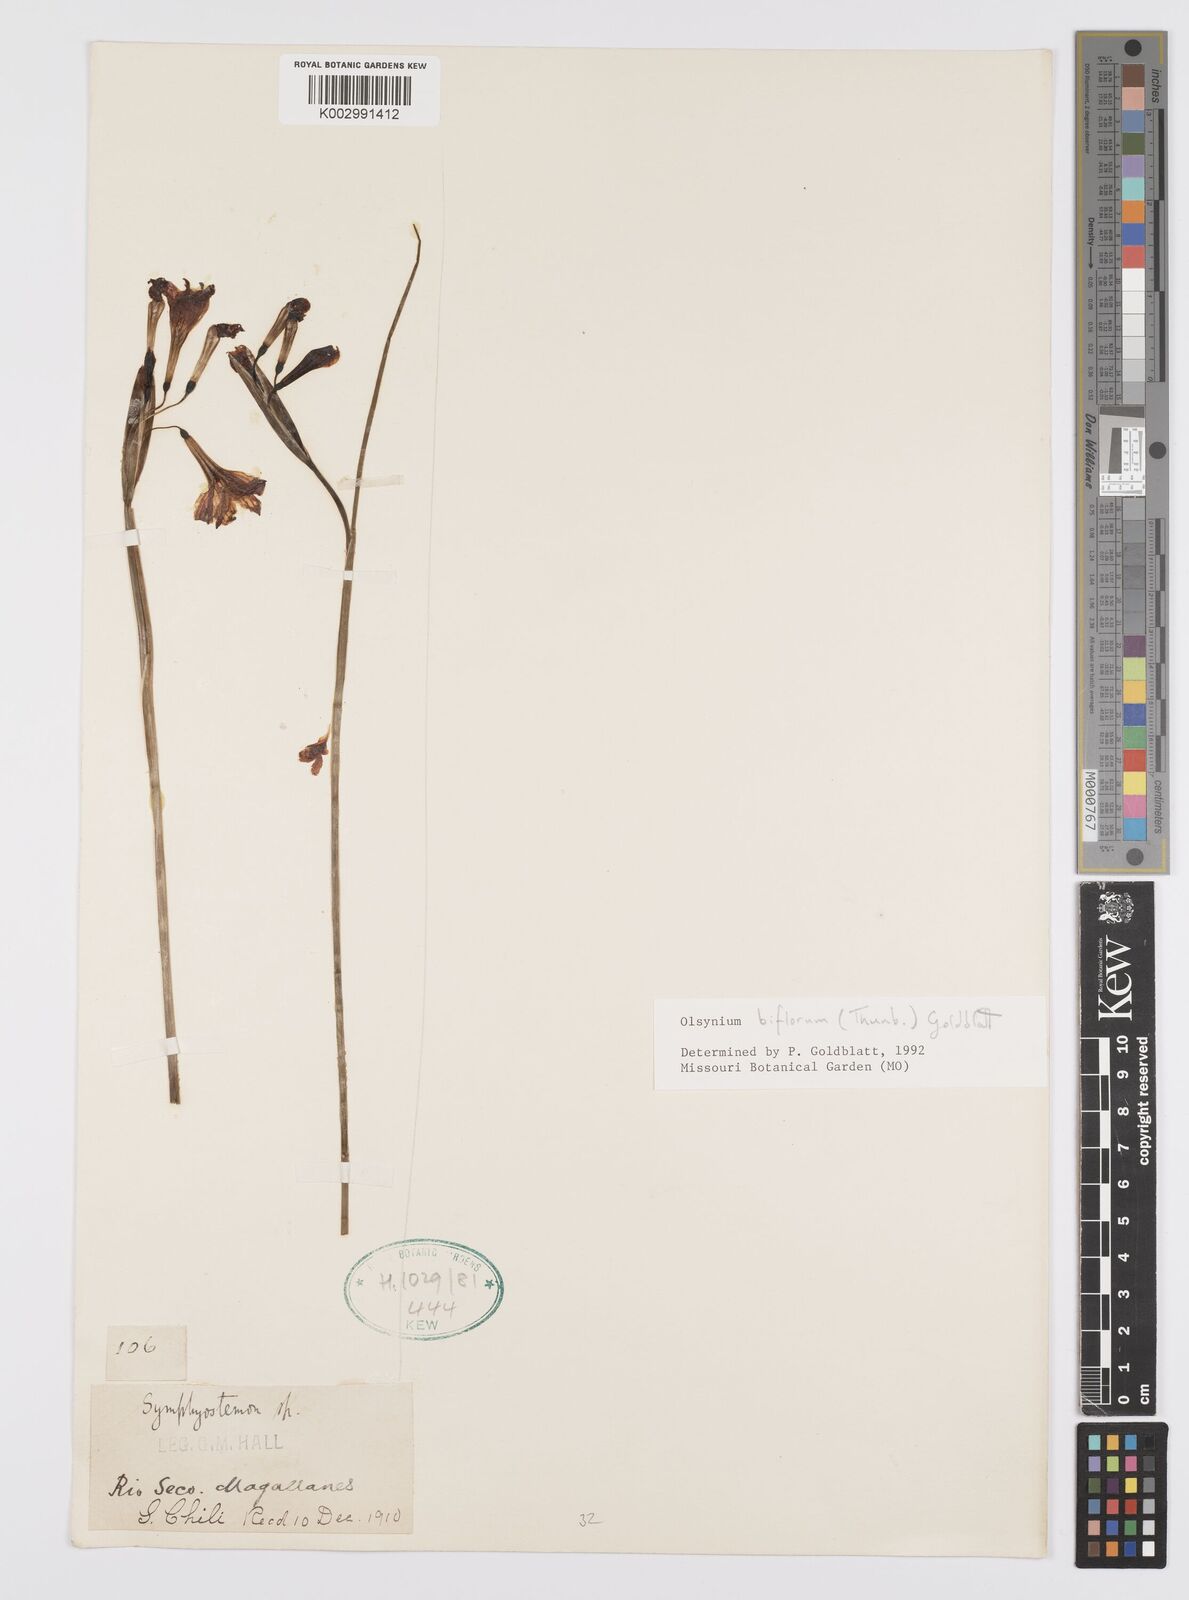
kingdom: Plantae
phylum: Tracheophyta
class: Liliopsida
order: Asparagales
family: Iridaceae
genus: Olsynium
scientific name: Olsynium biflorum
